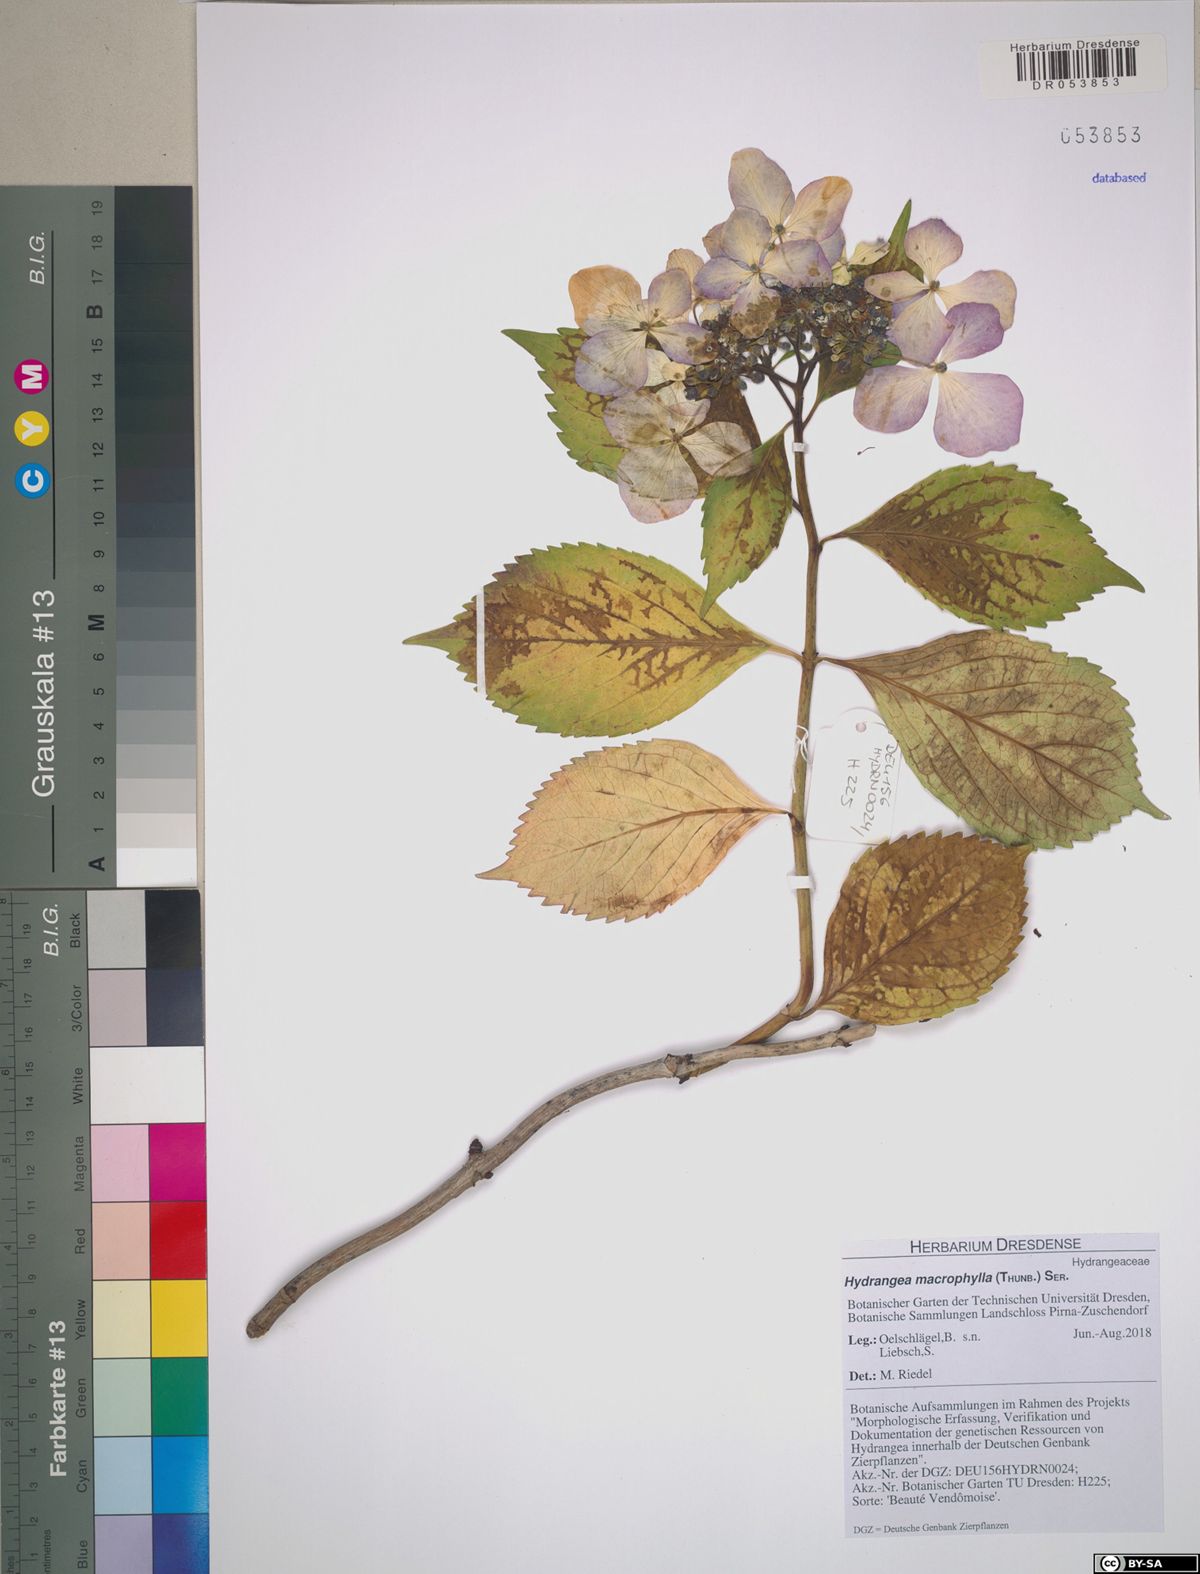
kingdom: Plantae
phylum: Tracheophyta
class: Magnoliopsida
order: Cornales
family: Hydrangeaceae
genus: Hydrangea
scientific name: Hydrangea macrophylla
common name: Hydrangea
